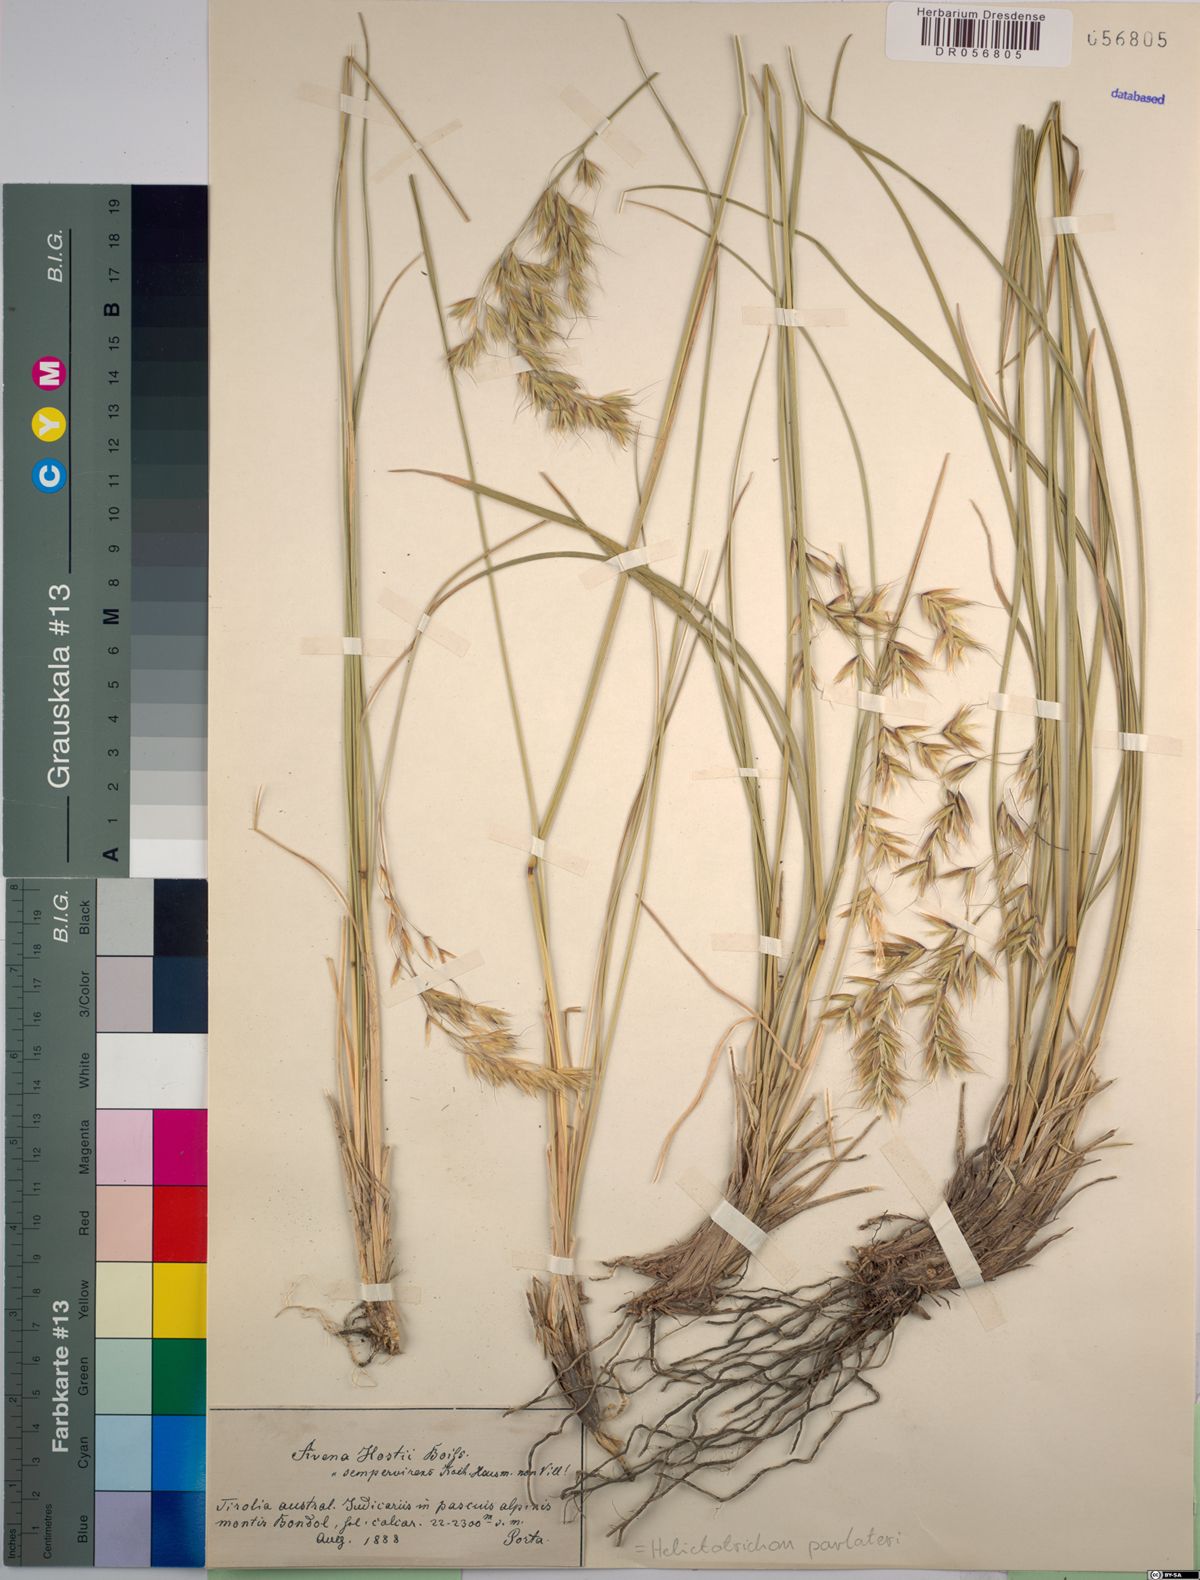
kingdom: Plantae
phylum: Tracheophyta
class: Liliopsida
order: Poales
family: Poaceae
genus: Helictotrichon
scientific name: Helictotrichon parlatorei
